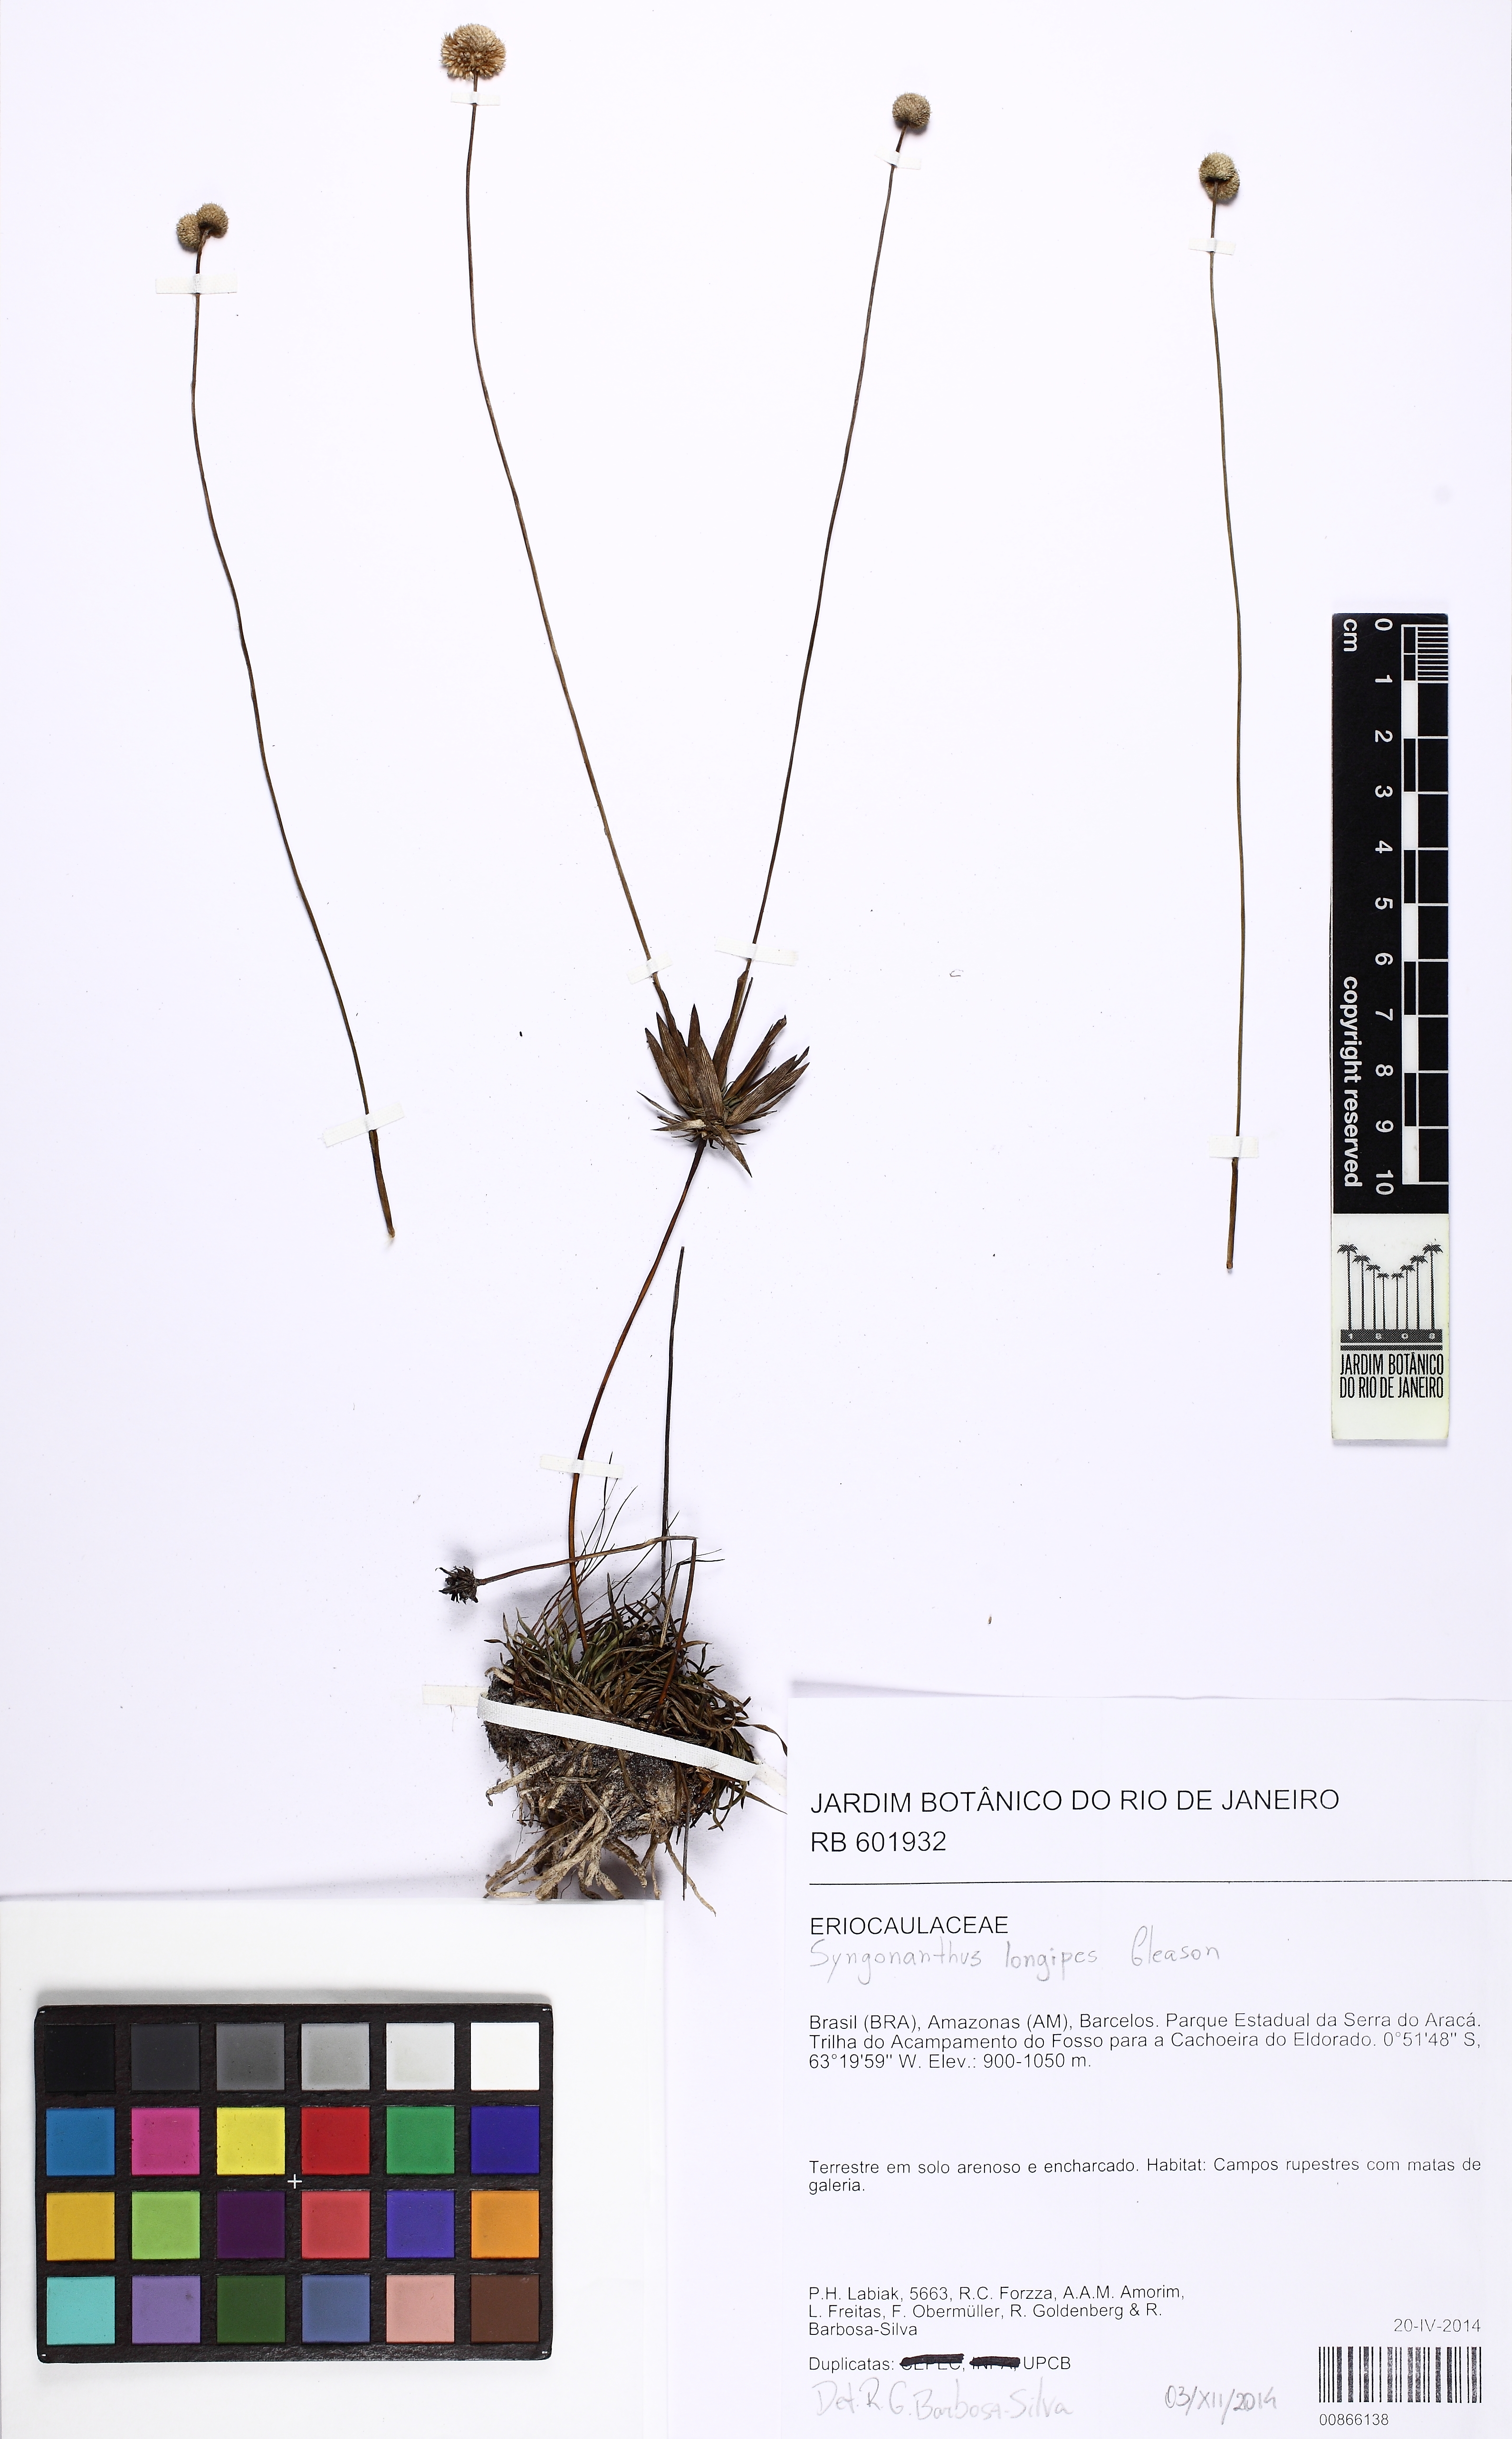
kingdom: Plantae
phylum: Tracheophyta
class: Liliopsida
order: Poales
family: Eriocaulaceae
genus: Syngonanthus
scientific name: Syngonanthus longipes
